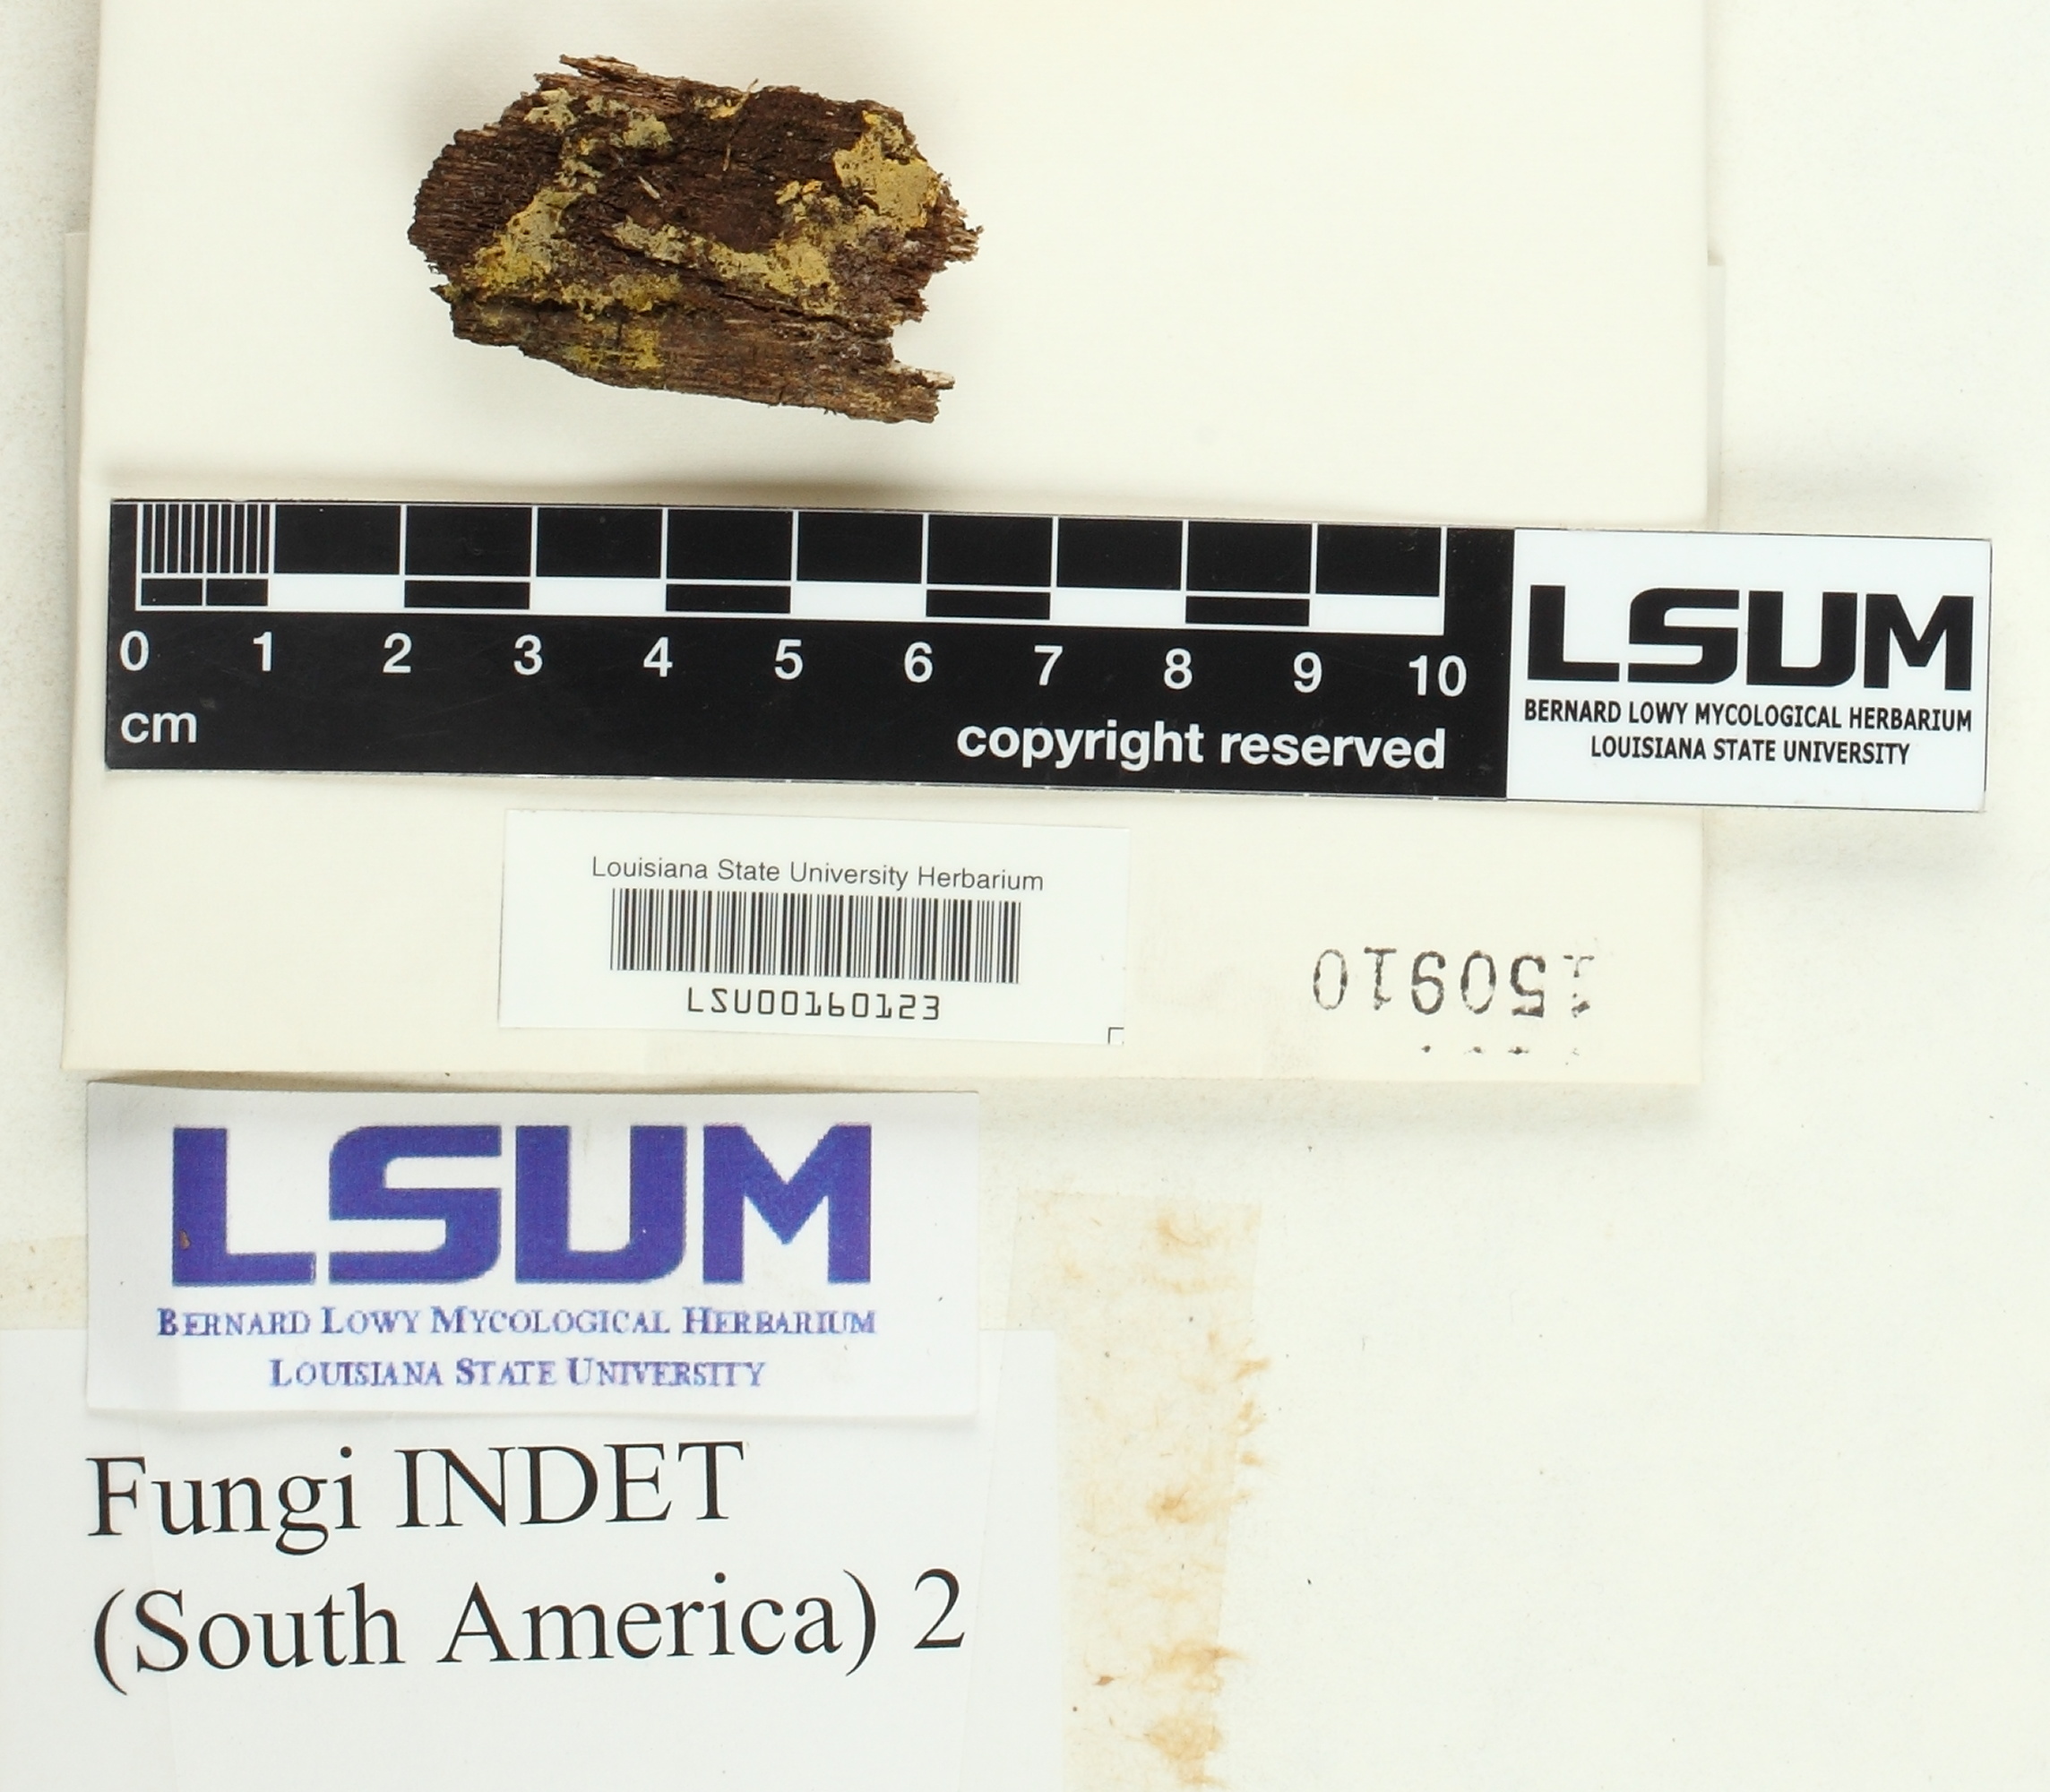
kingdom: Fungi
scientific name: Fungi
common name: Fungi
